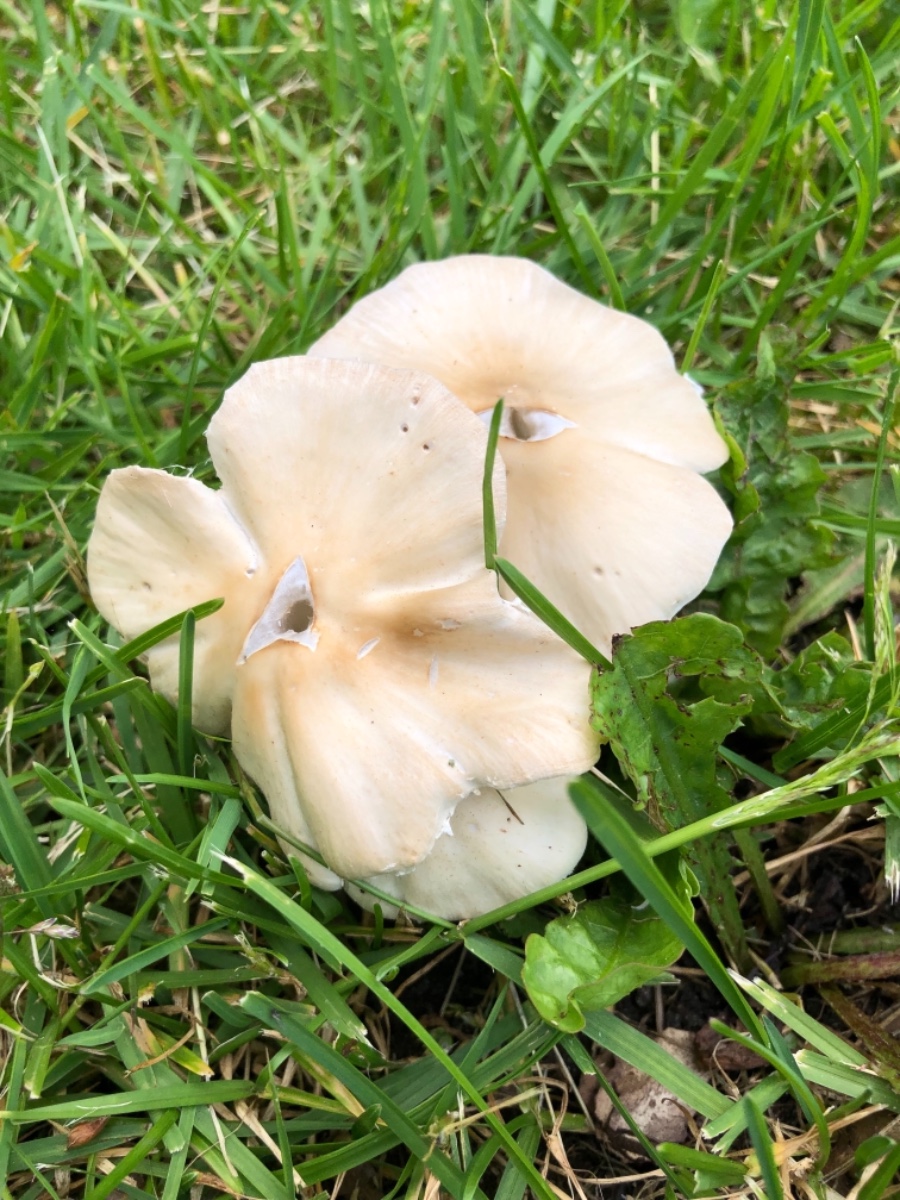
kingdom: Fungi
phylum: Basidiomycota
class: Agaricomycetes
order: Agaricales
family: Psathyrellaceae
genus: Candolleomyces
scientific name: Candolleomyces candolleanus
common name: Candolles mørkhat
